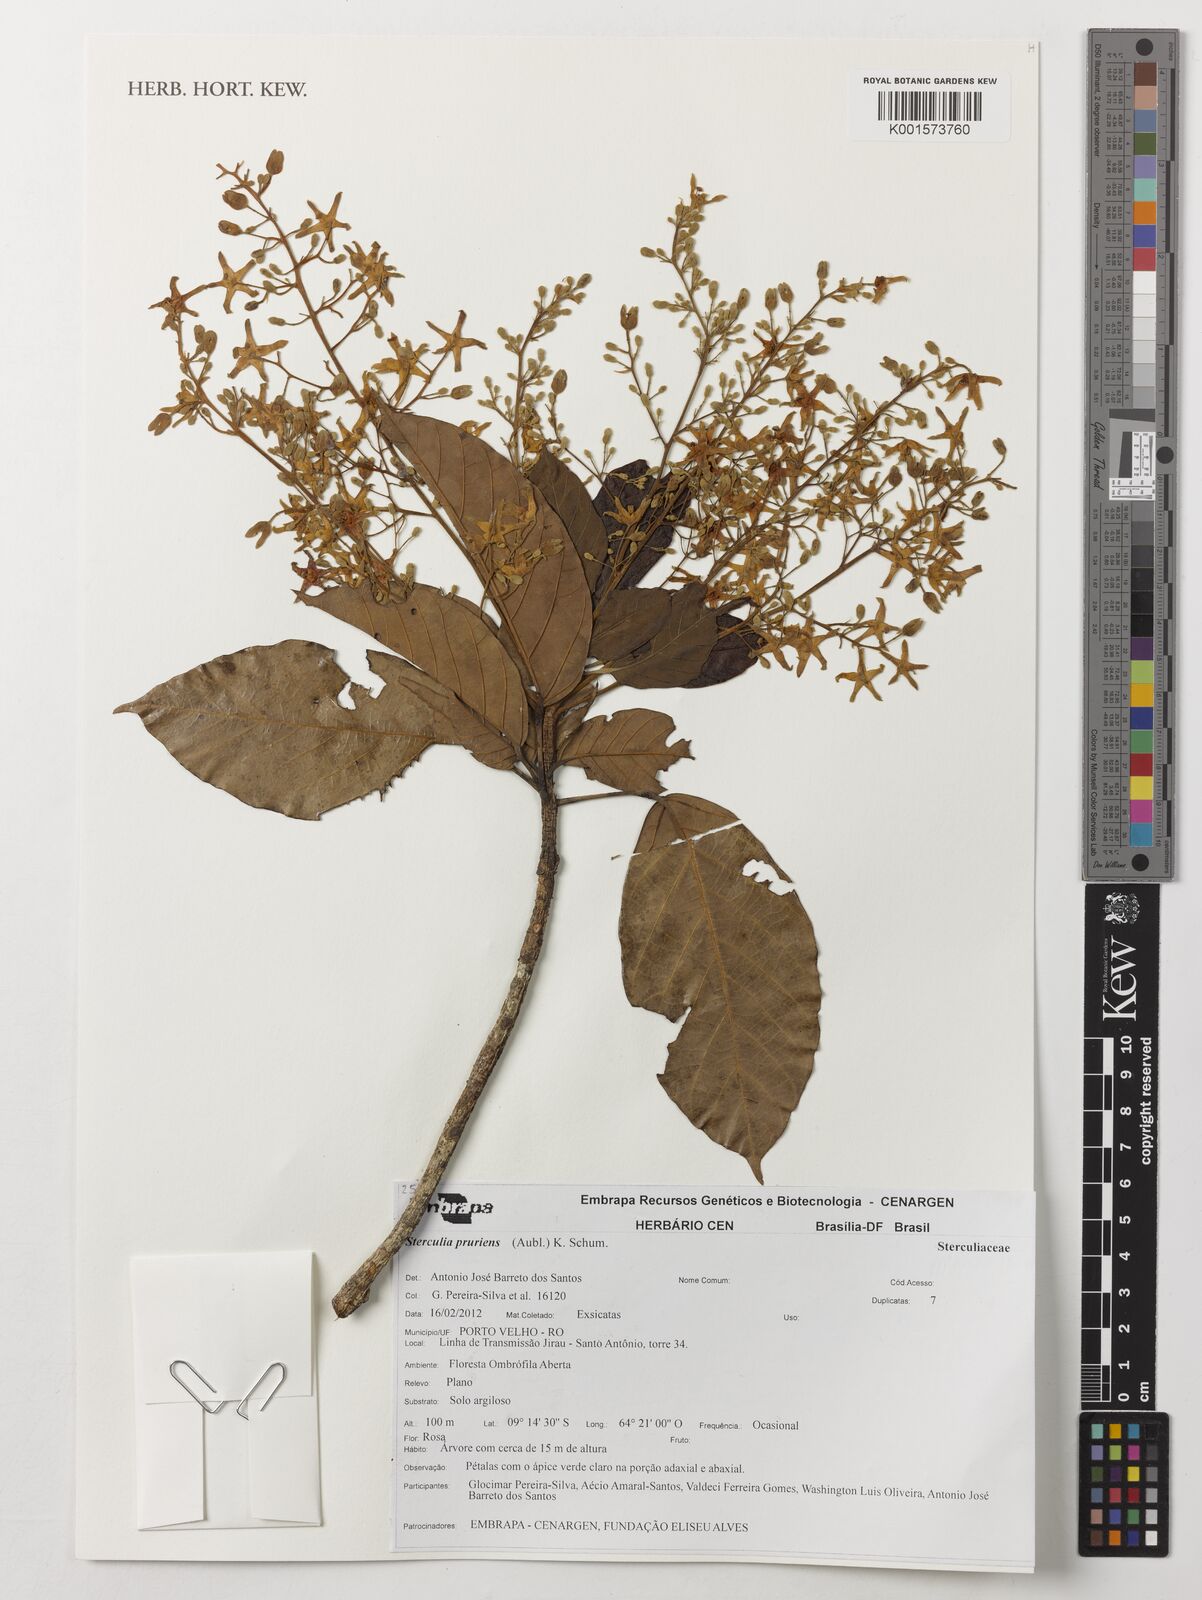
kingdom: Plantae
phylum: Tracheophyta
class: Magnoliopsida
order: Malvales
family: Malvaceae
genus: Sterculia
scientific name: Sterculia pruriens
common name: Grand mahot
